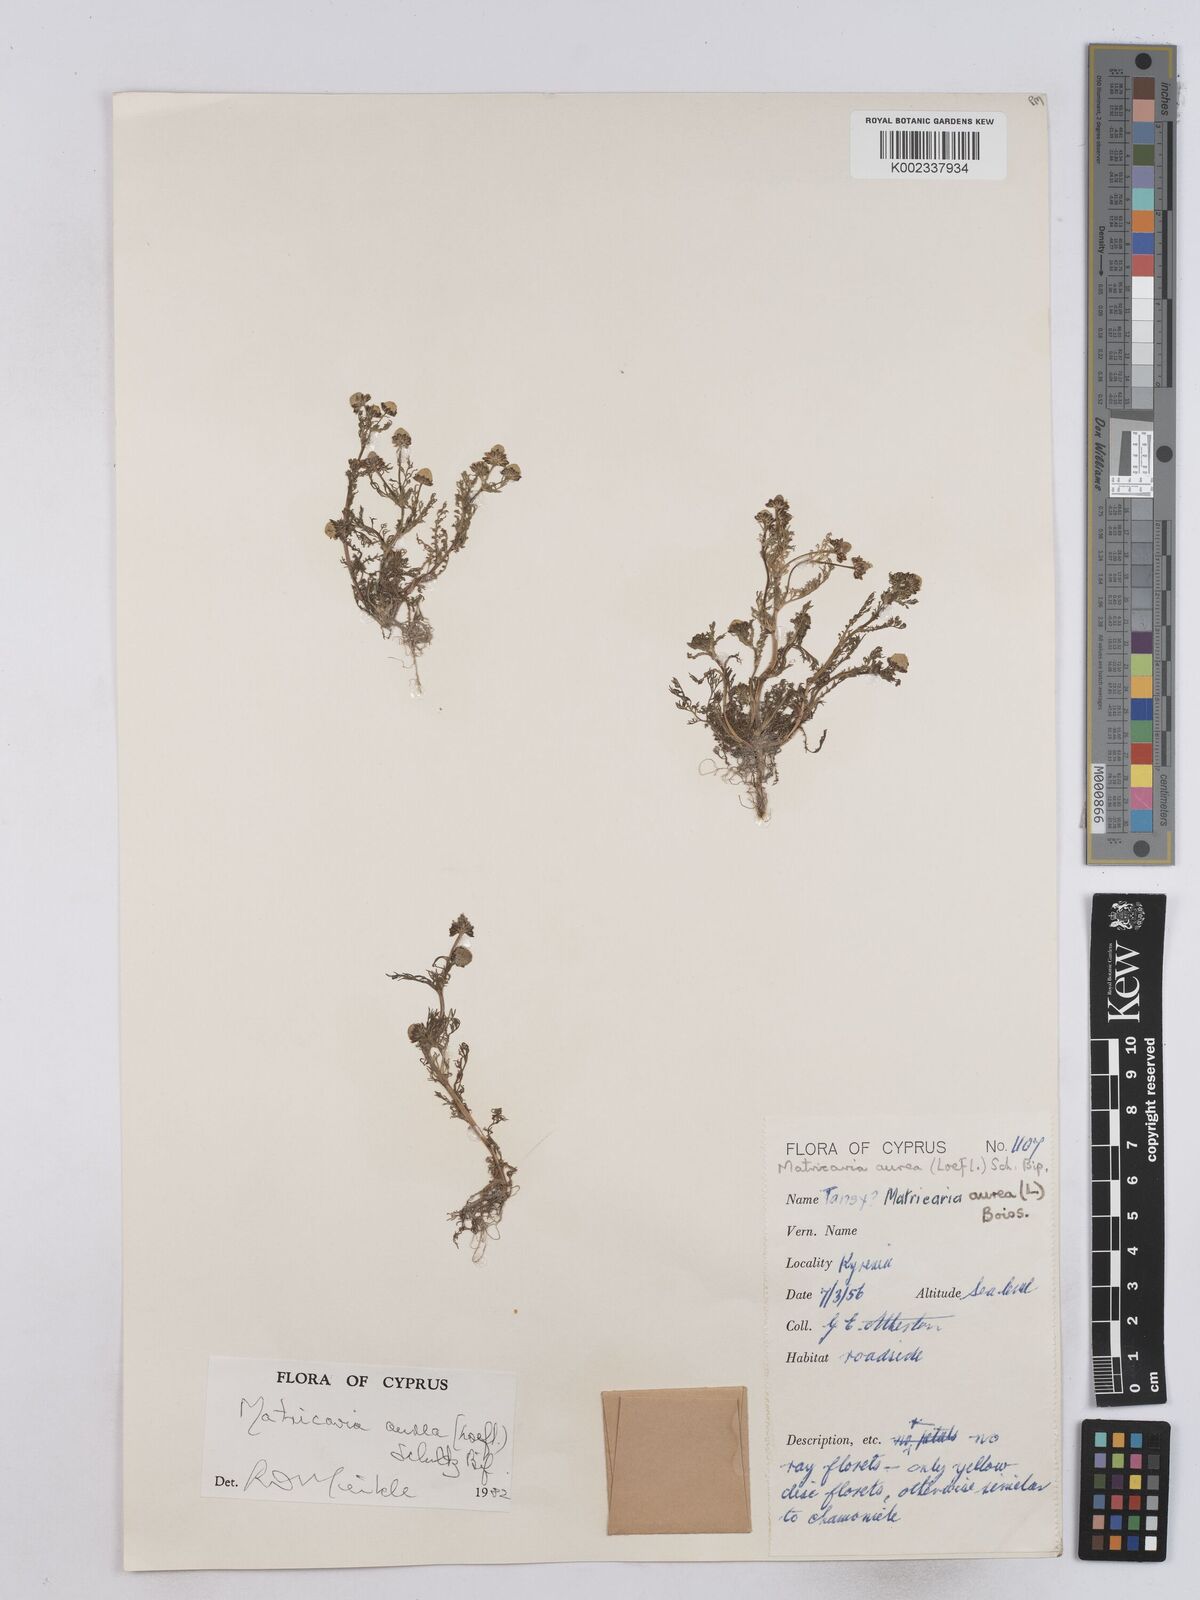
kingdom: Plantae
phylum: Tracheophyta
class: Magnoliopsida
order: Asterales
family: Asteraceae
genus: Matricaria
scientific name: Matricaria aurea
